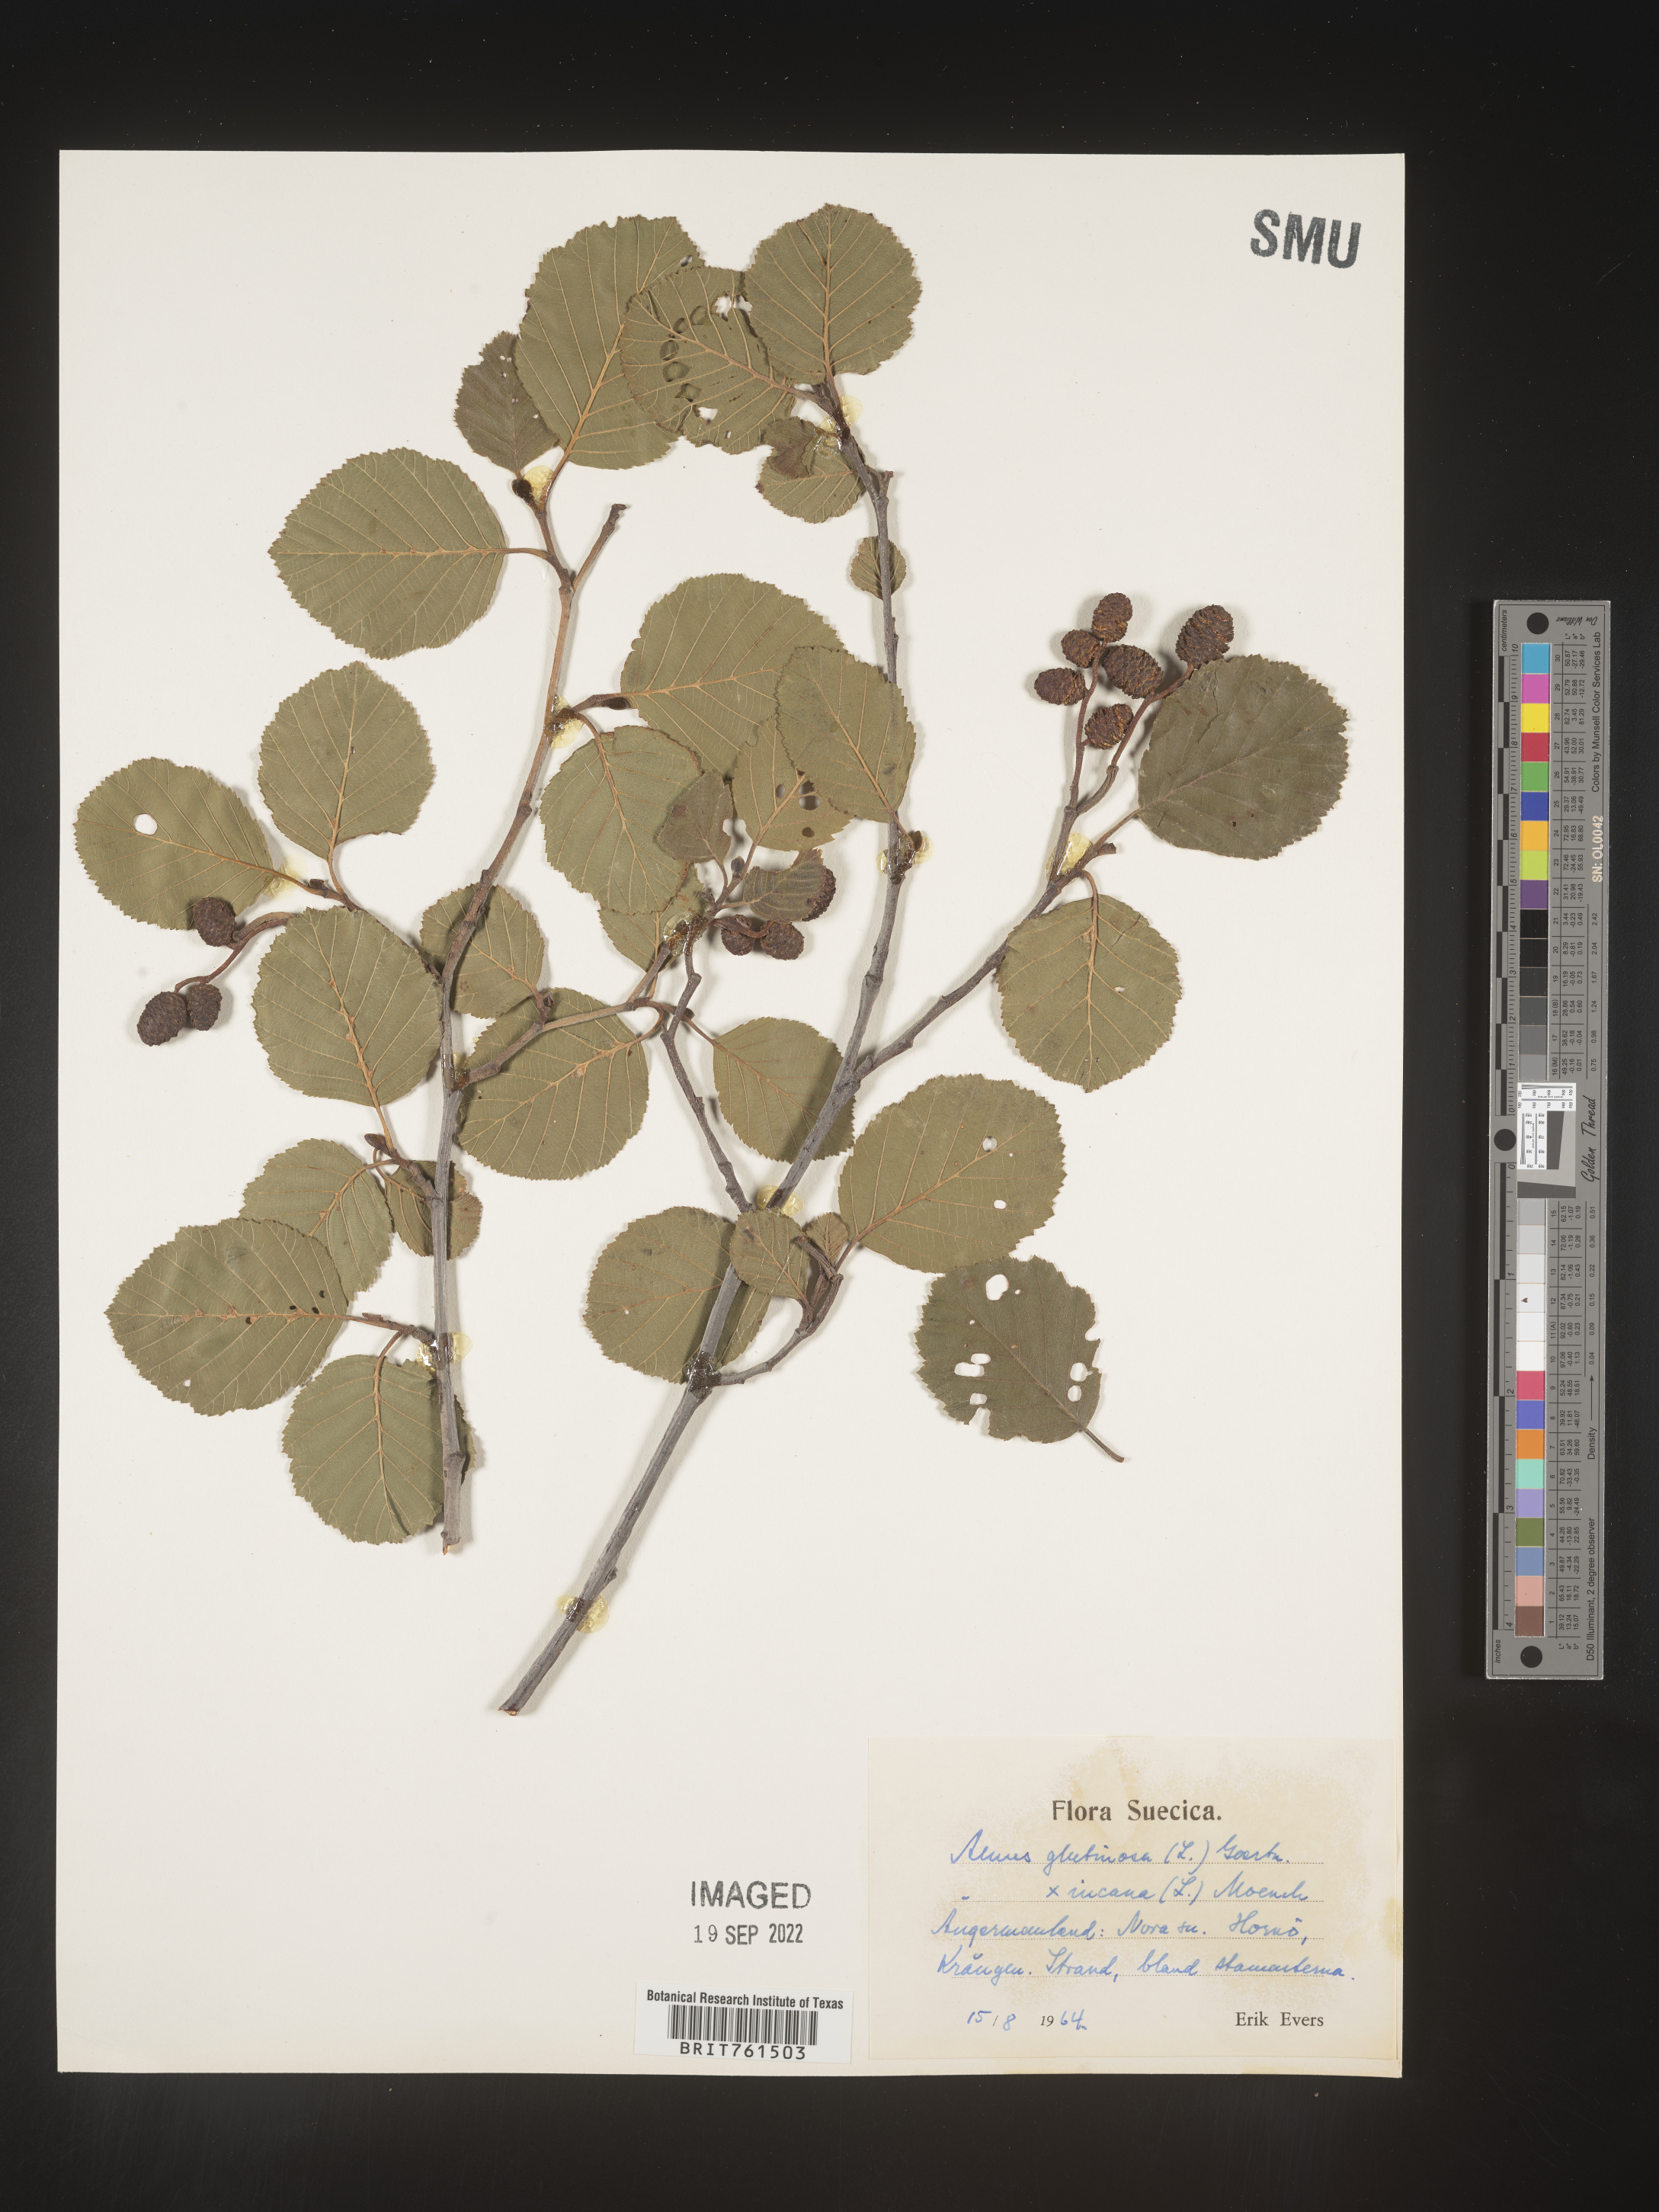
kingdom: Plantae
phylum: Tracheophyta
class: Magnoliopsida
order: Fagales
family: Betulaceae
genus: Alnus
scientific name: Alnus
